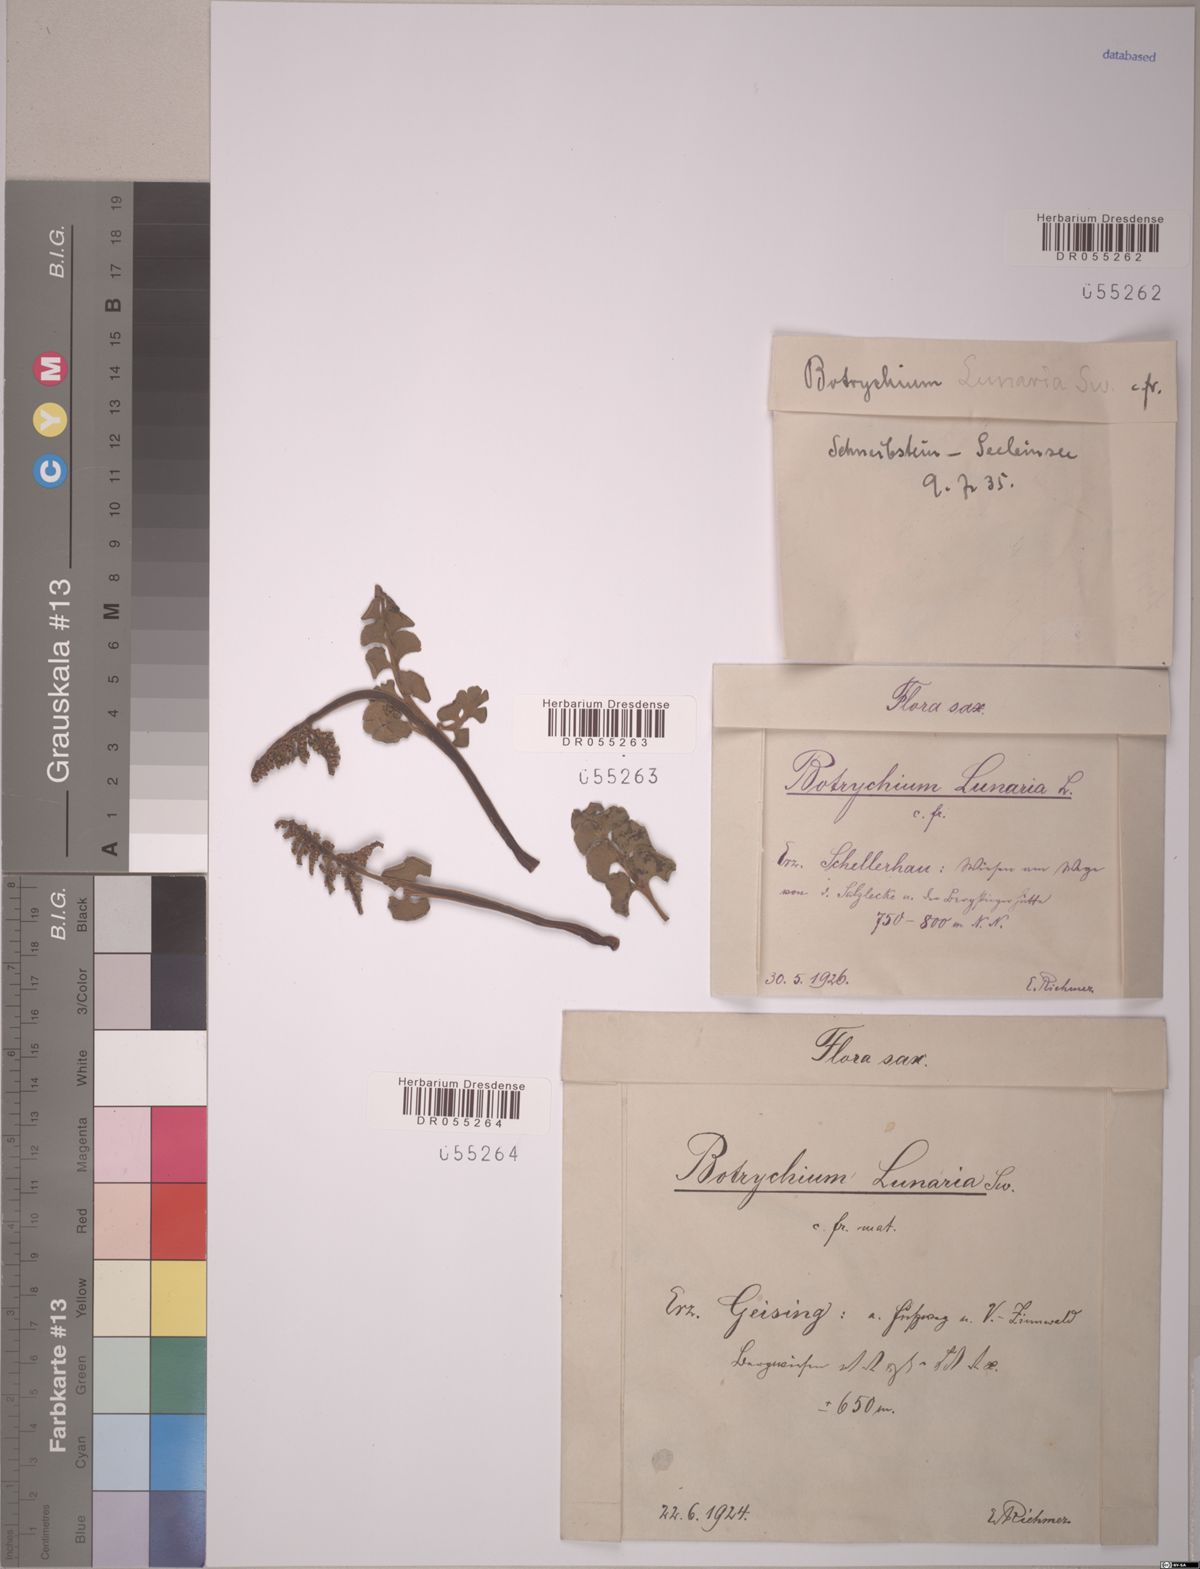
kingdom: Plantae
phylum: Tracheophyta
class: Polypodiopsida
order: Ophioglossales
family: Ophioglossaceae
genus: Botrychium
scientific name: Botrychium lunaria
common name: Moonwort
